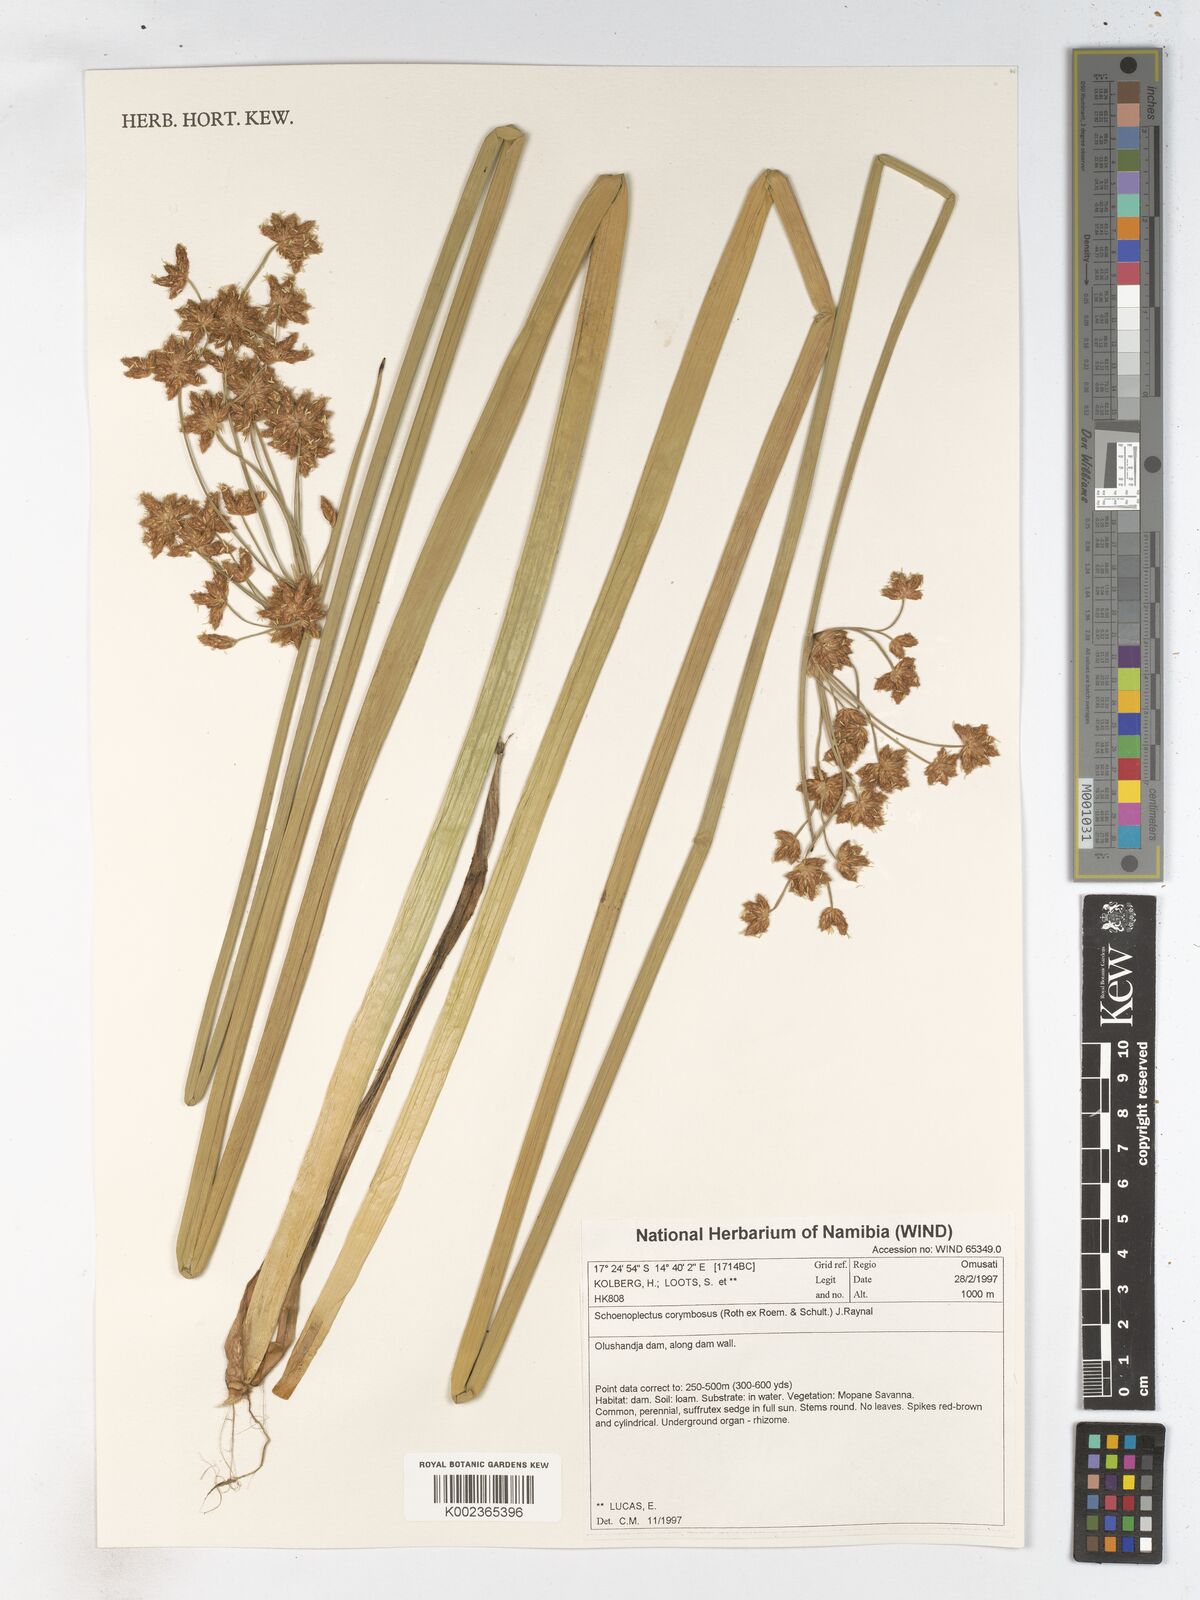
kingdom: Plantae
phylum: Tracheophyta
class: Liliopsida
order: Poales
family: Cyperaceae
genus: Schoenoplectiella
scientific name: Schoenoplectiella brachyceras
